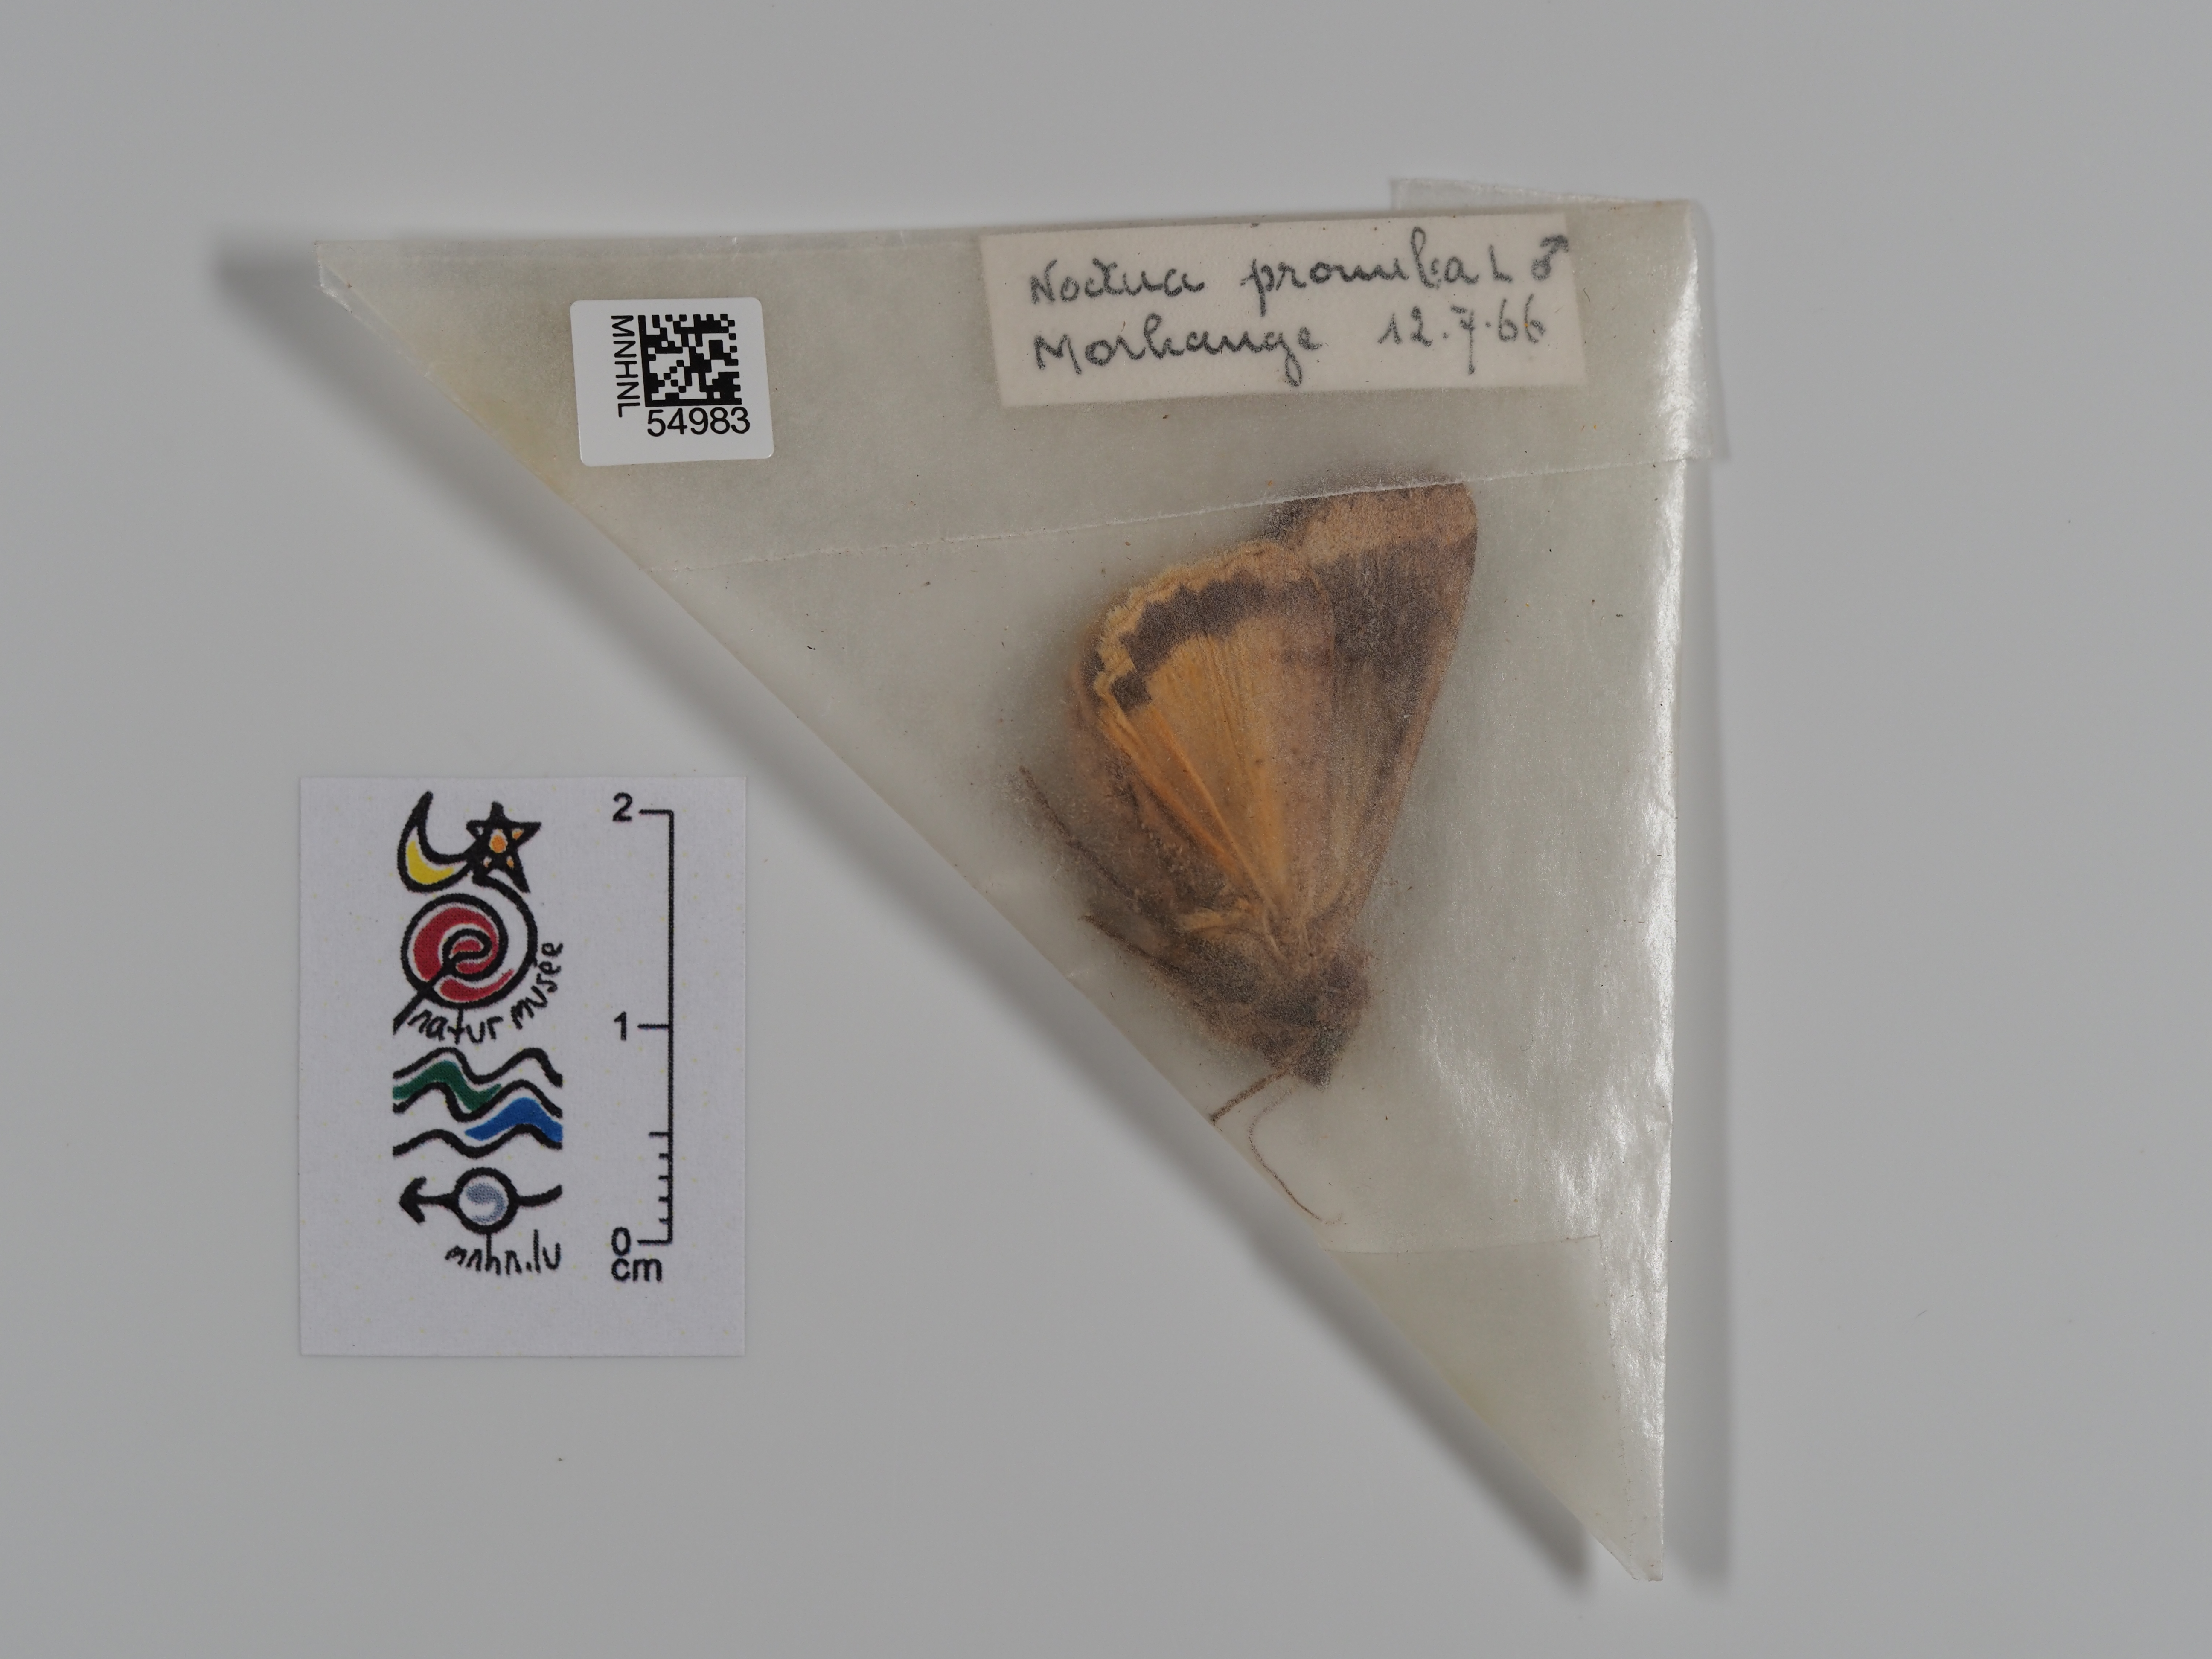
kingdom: Animalia
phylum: Arthropoda
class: Insecta
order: Lepidoptera
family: Noctuidae
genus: Noctua
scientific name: Noctua pronuba
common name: Large yellow underwing
